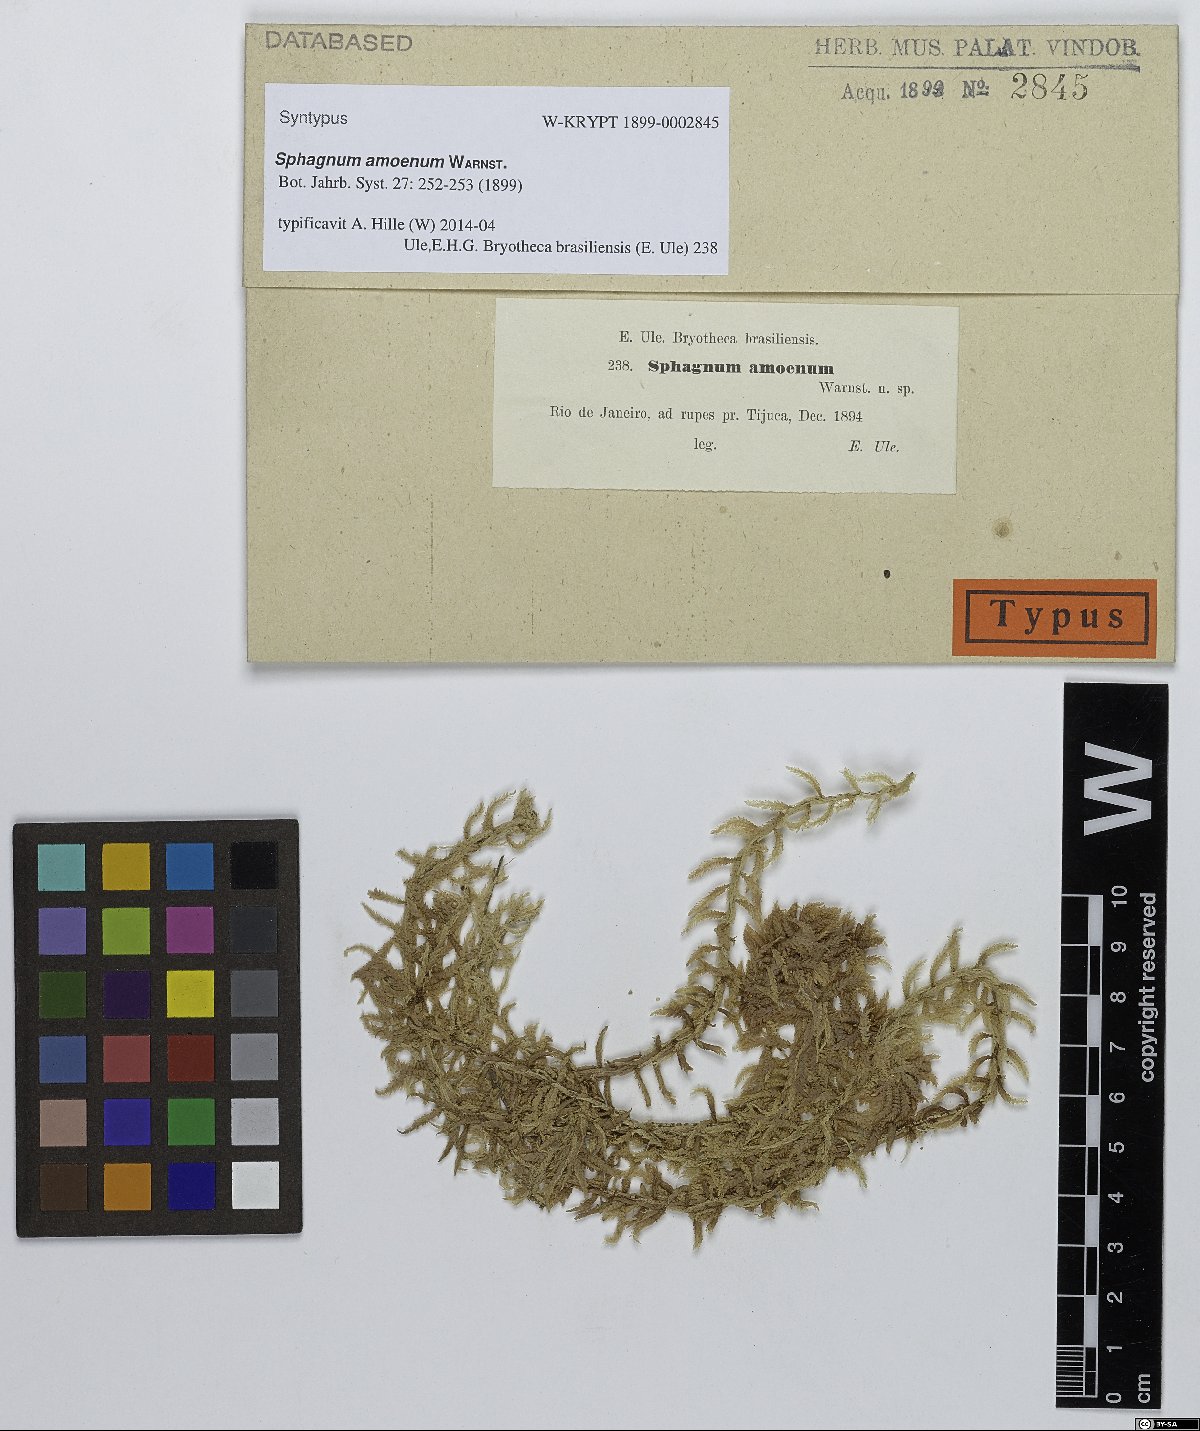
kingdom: Plantae
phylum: Bryophyta
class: Sphagnopsida
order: Sphagnales
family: Sphagnaceae
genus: Sphagnum
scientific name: Sphagnum amoenum
